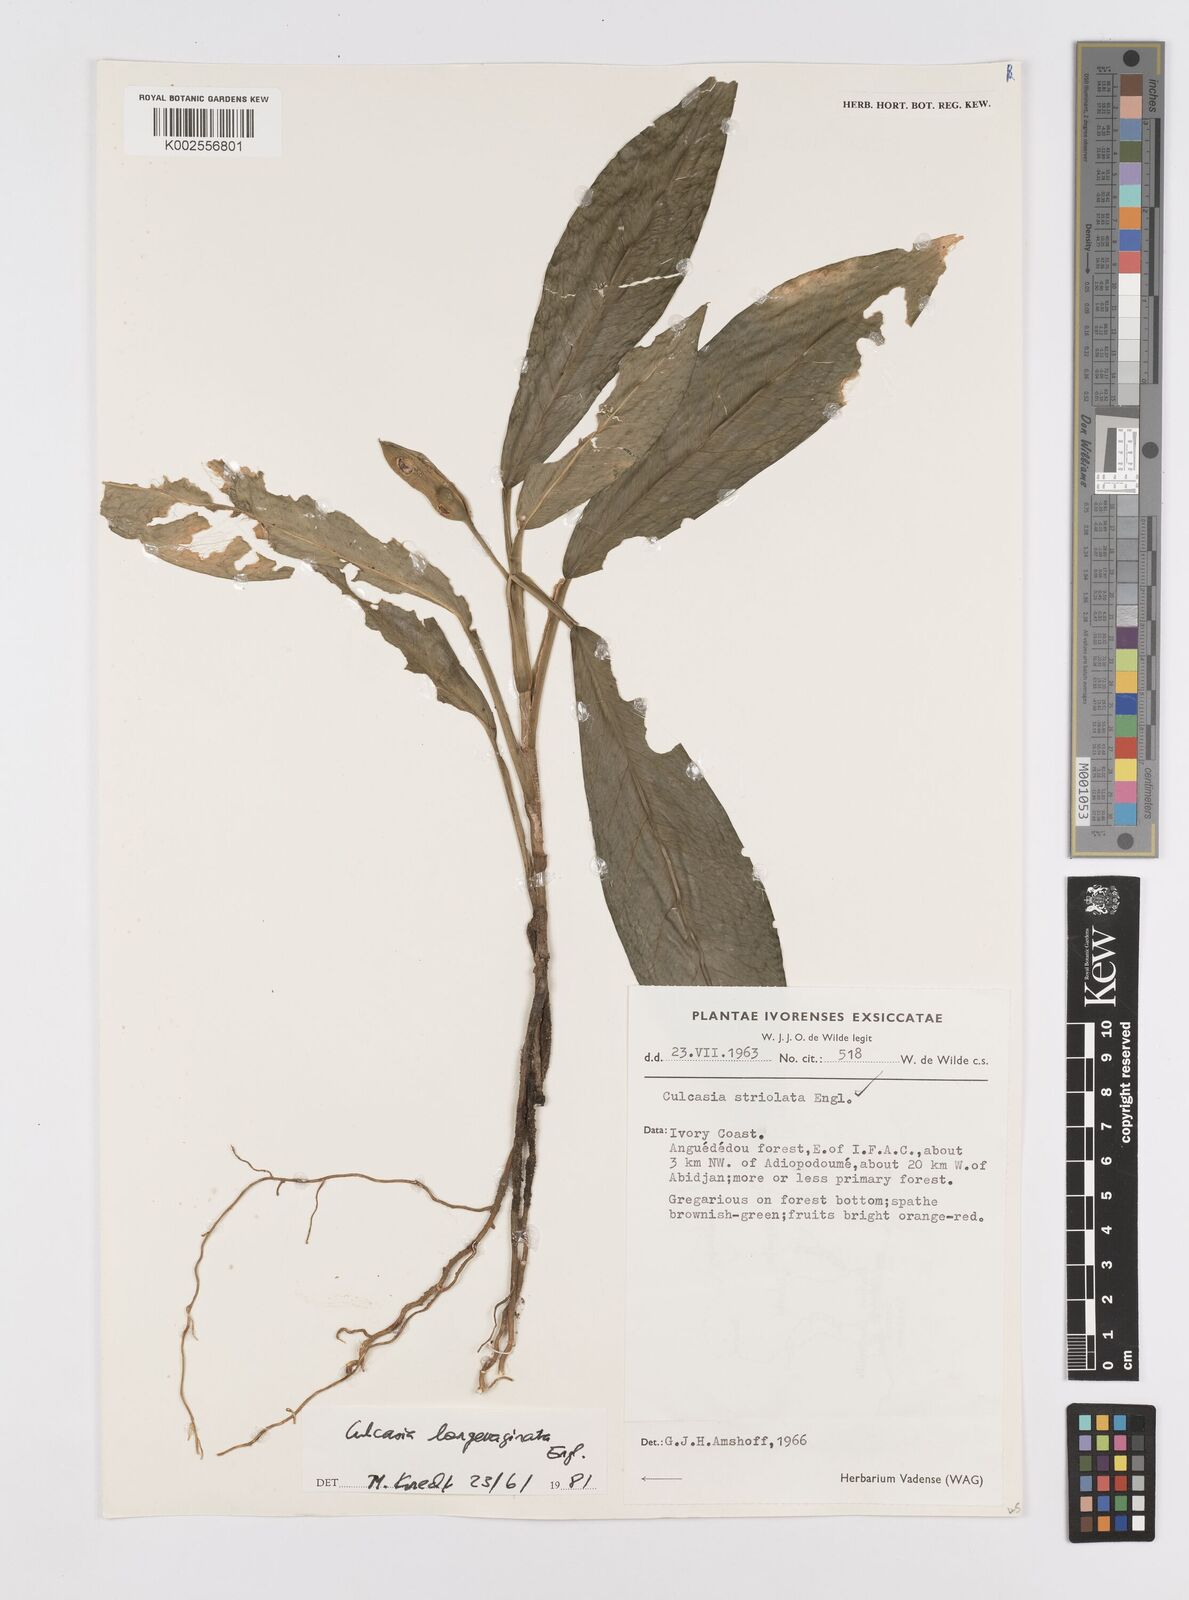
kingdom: Plantae
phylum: Tracheophyta
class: Liliopsida
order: Alismatales
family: Araceae
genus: Culcasia
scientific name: Culcasia striolata
